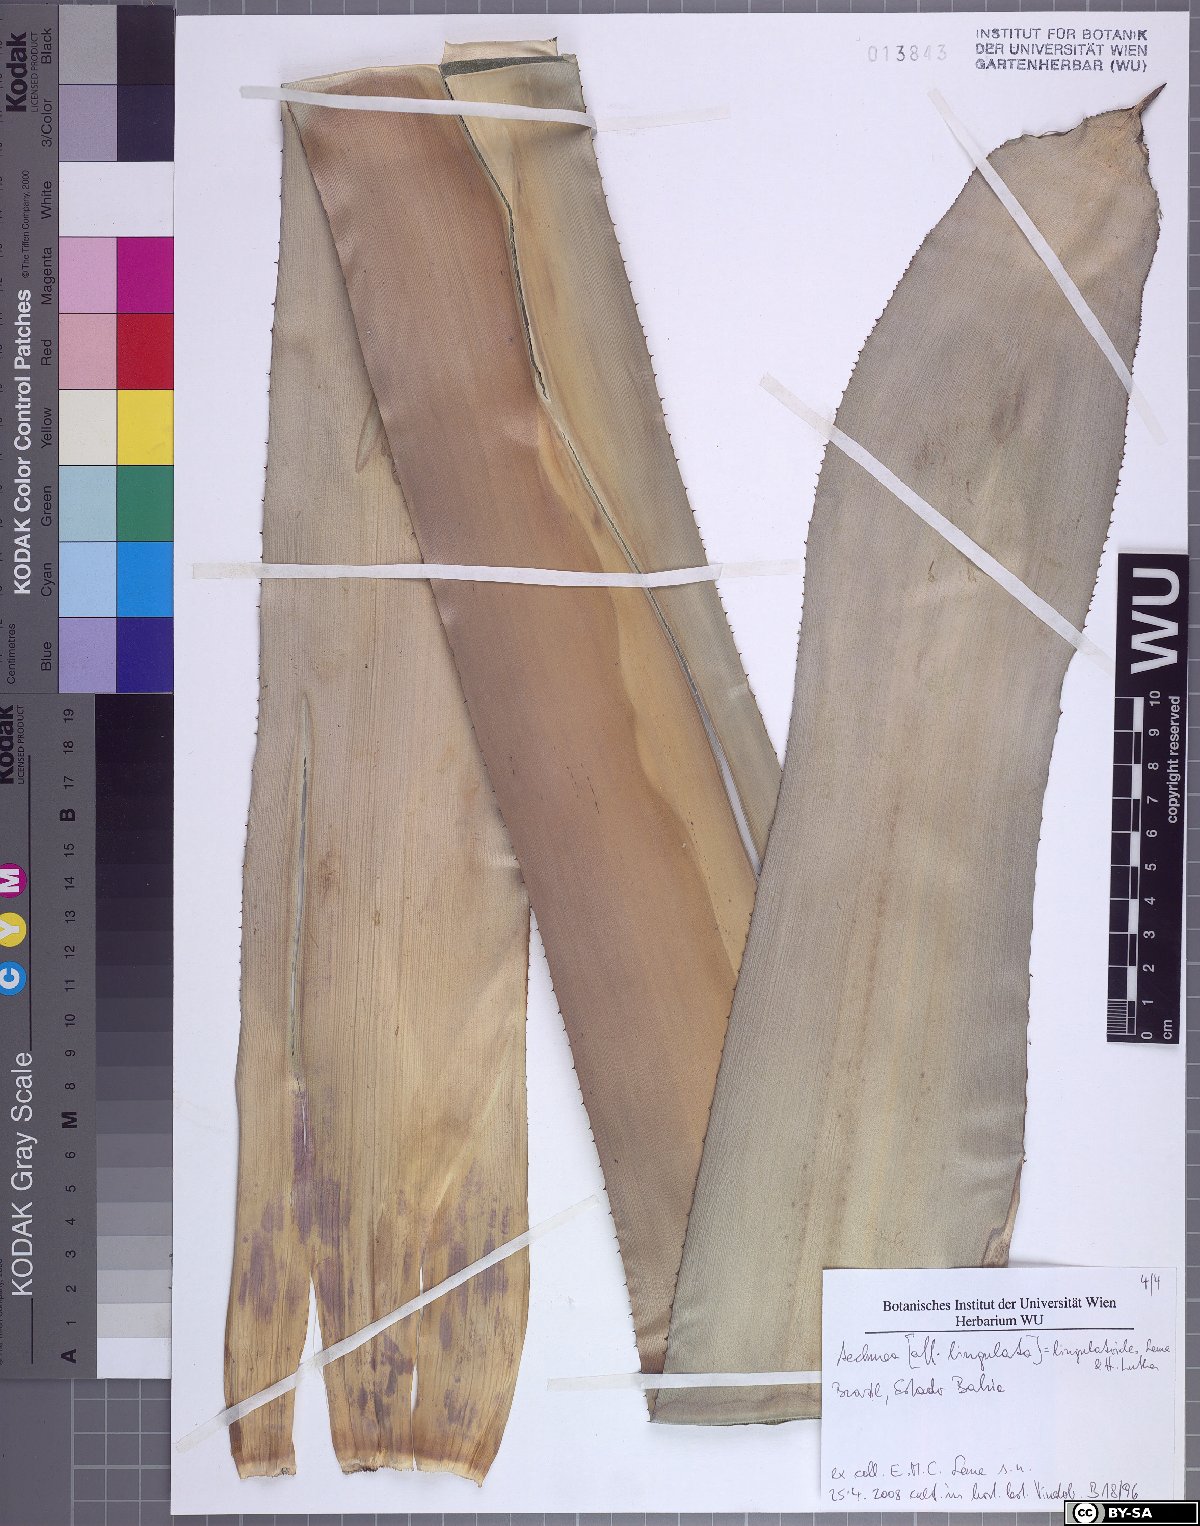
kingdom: Plantae
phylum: Tracheophyta
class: Liliopsida
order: Poales
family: Bromeliaceae
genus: Wittmackia
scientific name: Wittmackia lingulatoides
